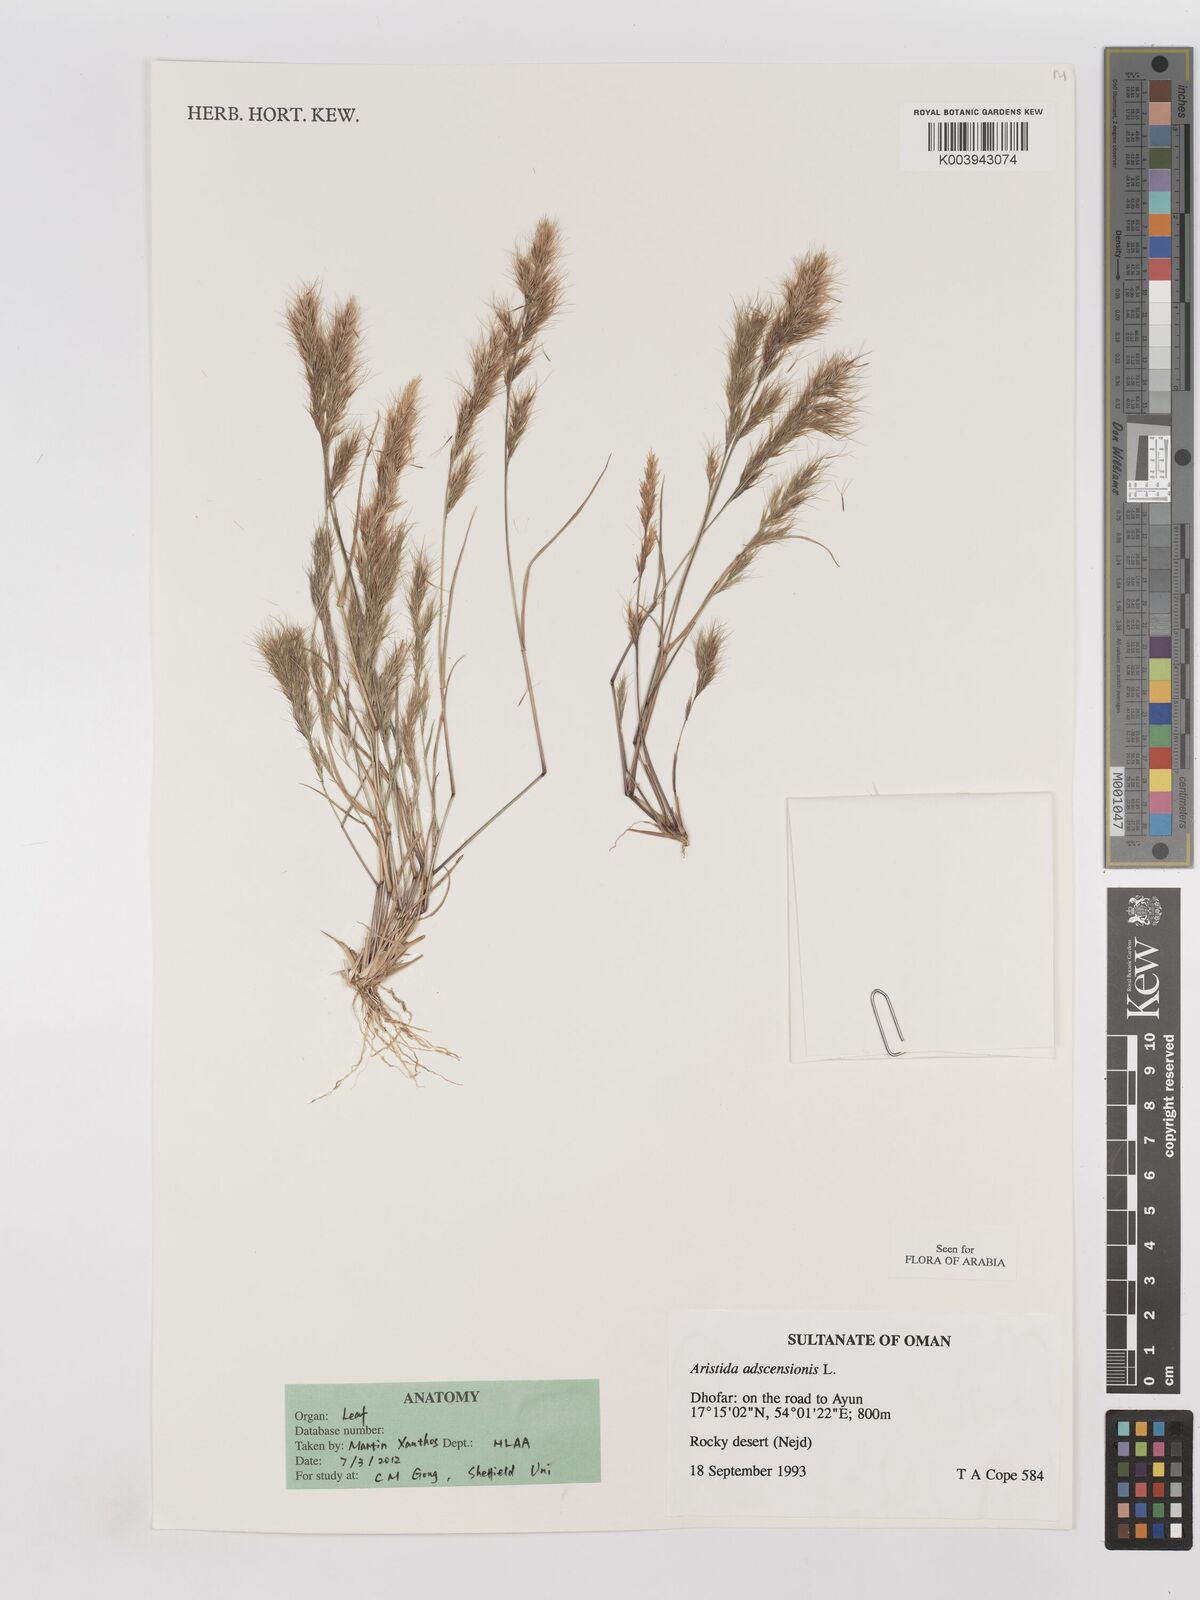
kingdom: Plantae
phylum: Tracheophyta
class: Liliopsida
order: Poales
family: Poaceae
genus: Aristida
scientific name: Aristida adscensionis
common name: Sixweeks threeawn
